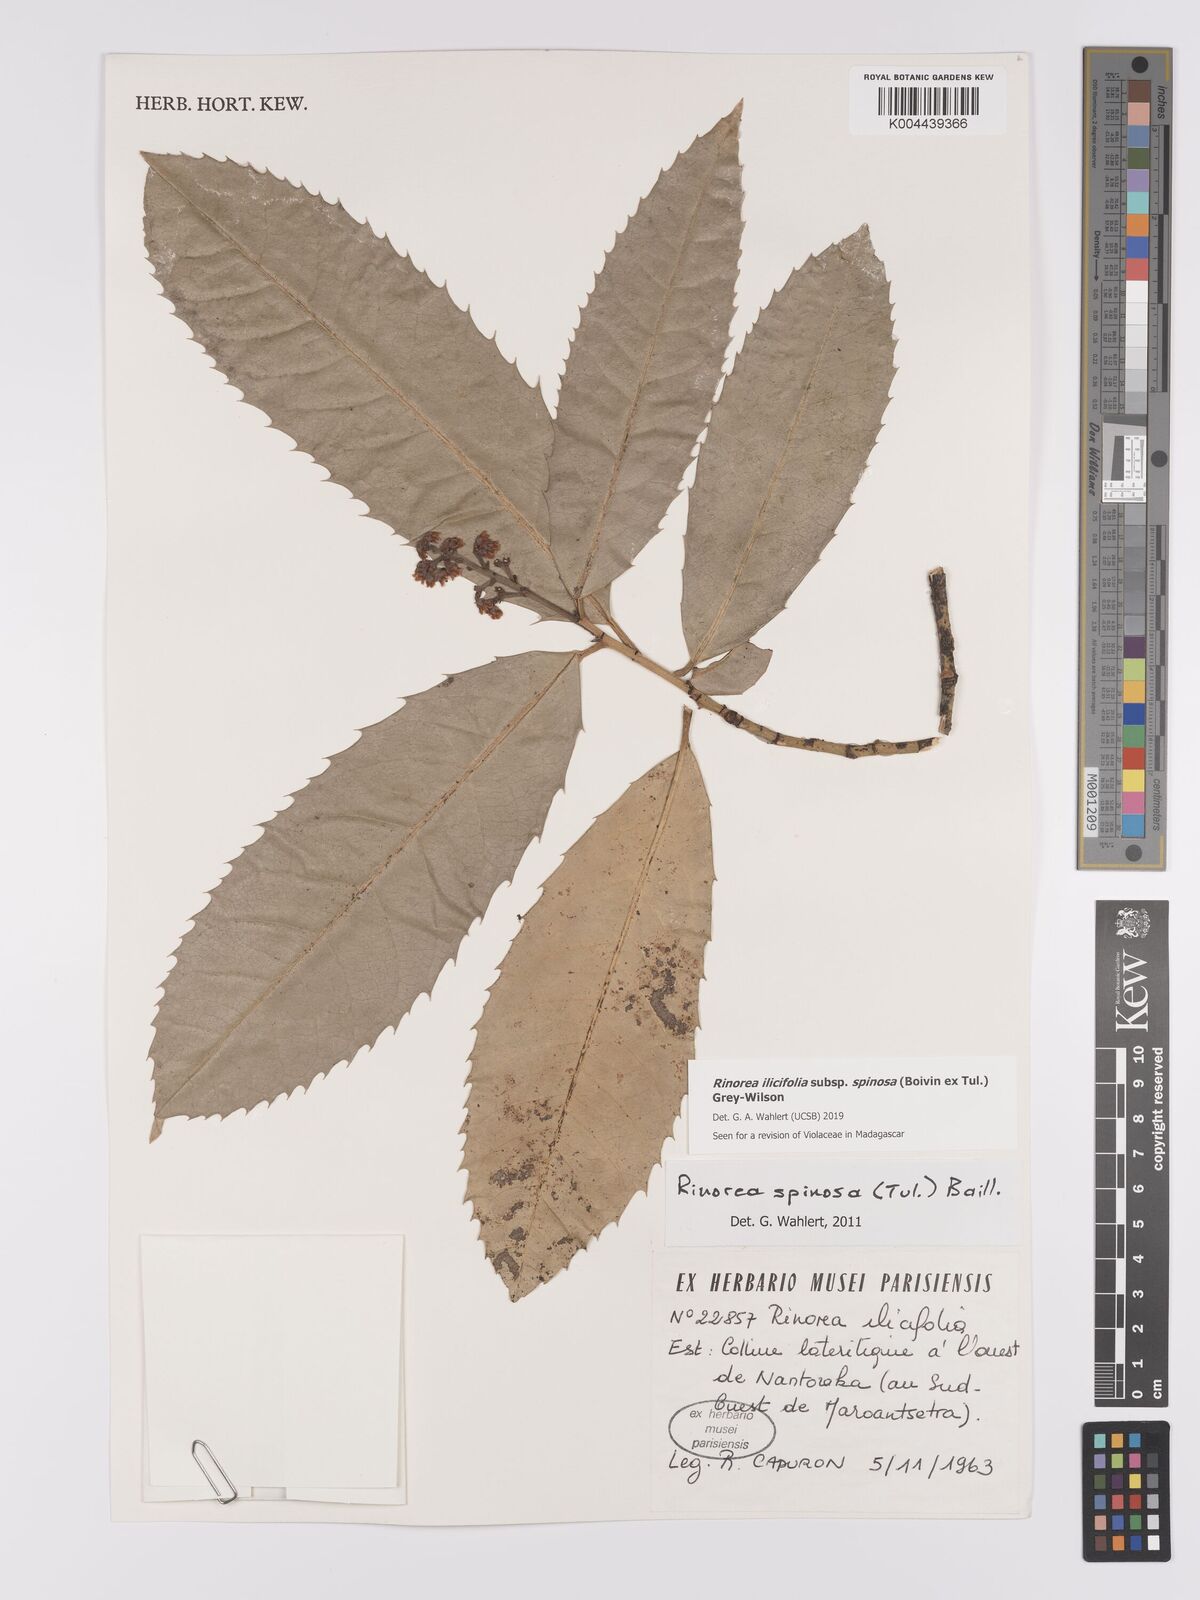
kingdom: Plantae
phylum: Tracheophyta
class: Magnoliopsida
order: Malpighiales
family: Violaceae
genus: Rinorea
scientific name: Rinorea spinosa
